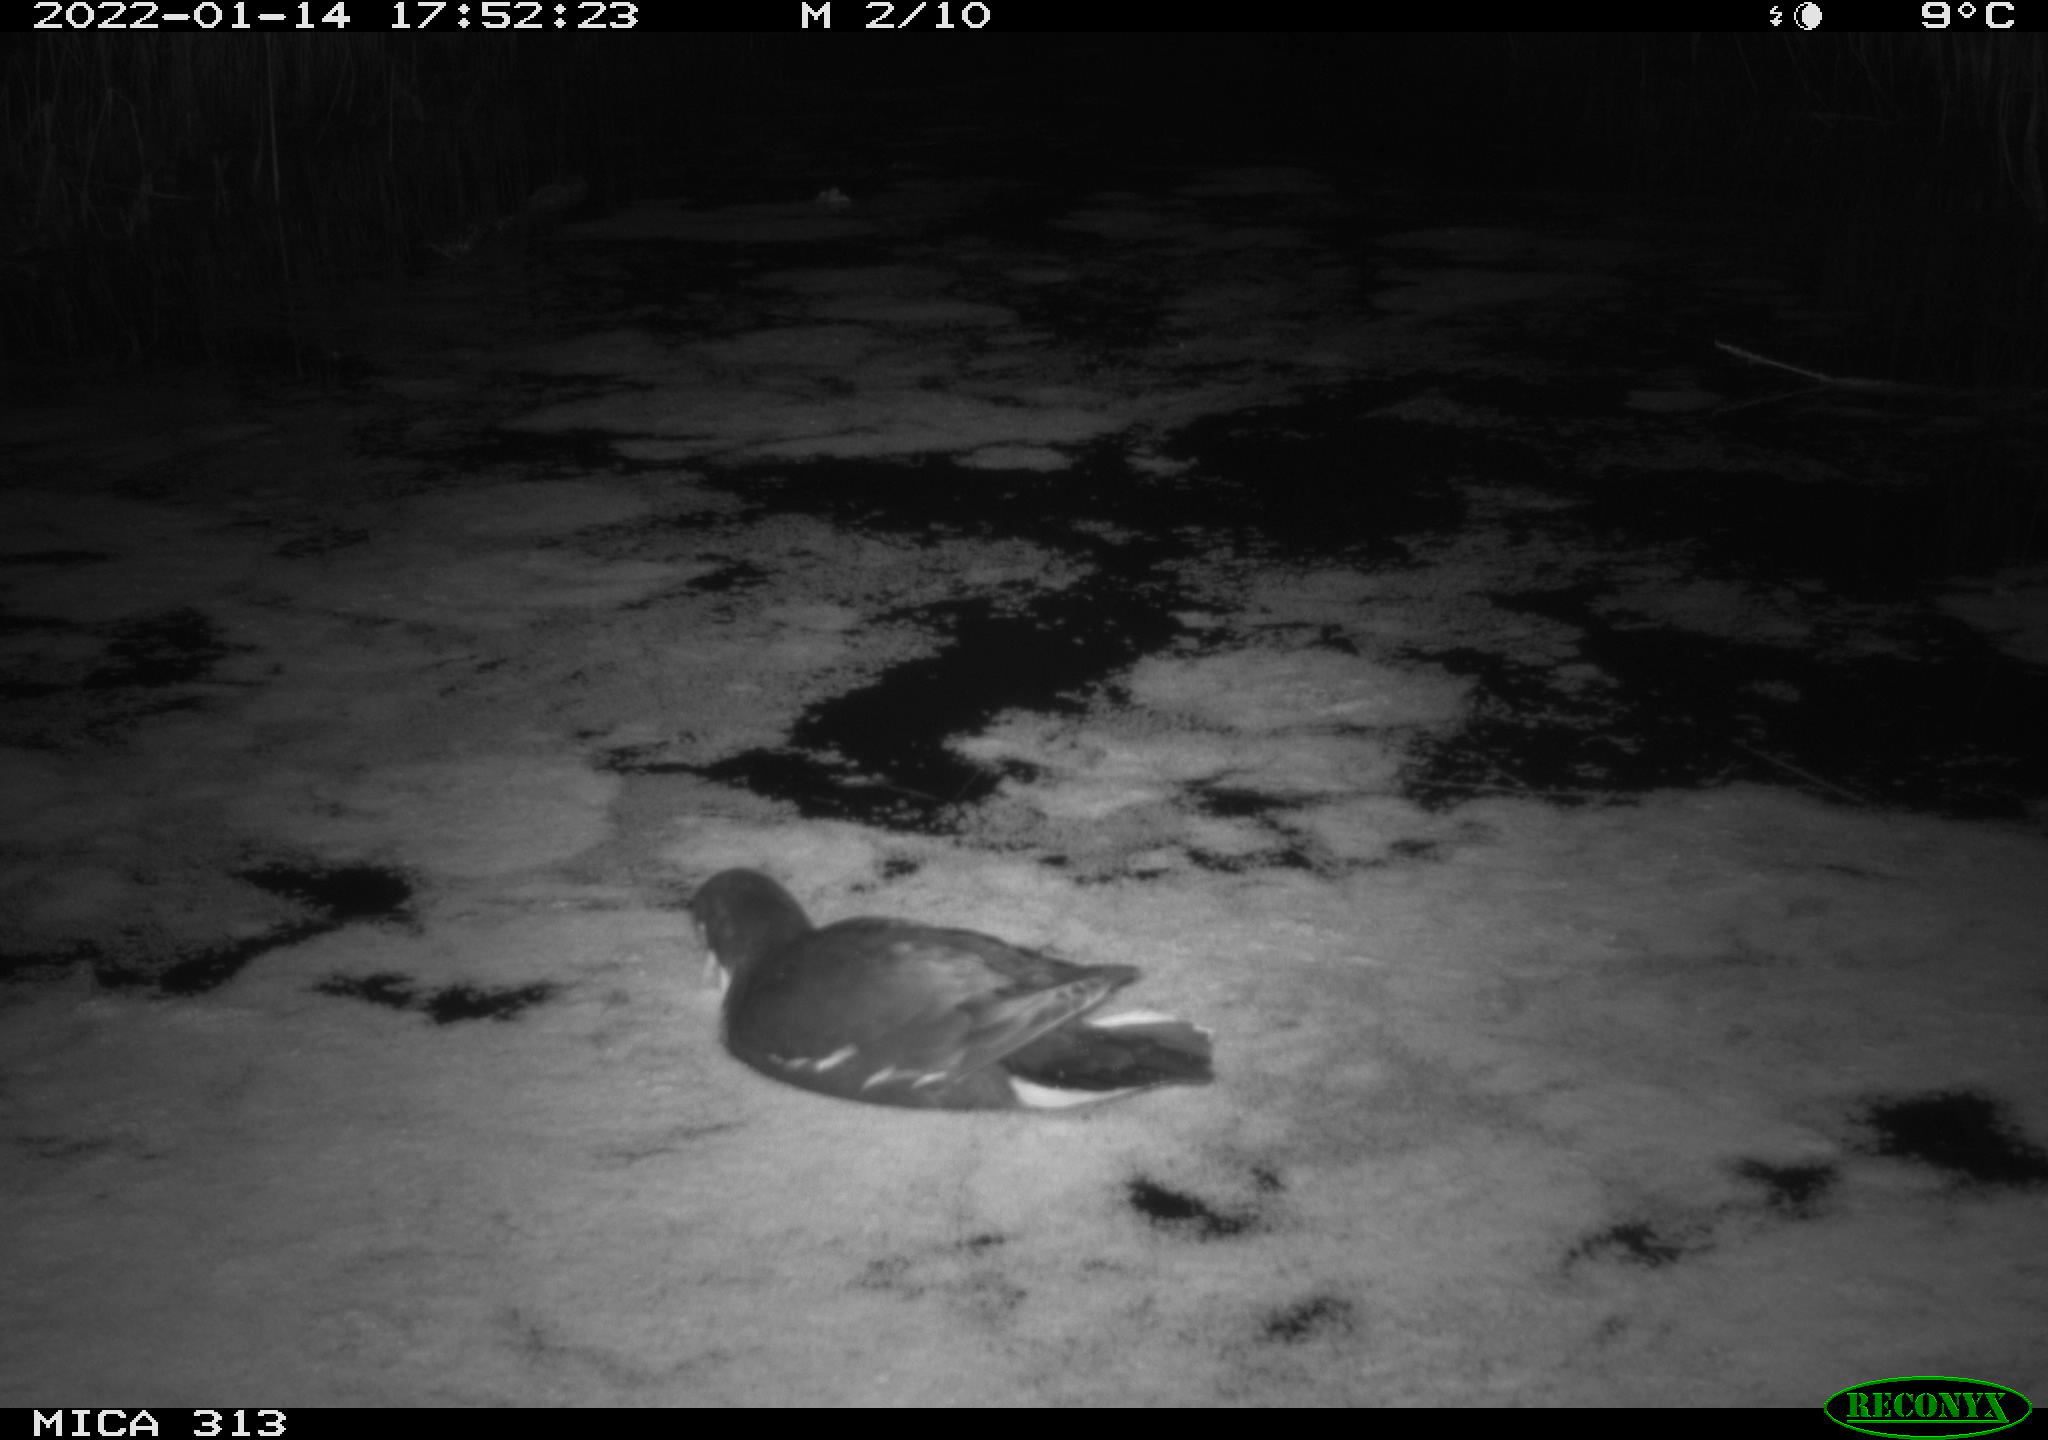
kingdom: Animalia
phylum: Chordata
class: Aves
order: Anseriformes
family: Anatidae
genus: Anas
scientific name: Anas
